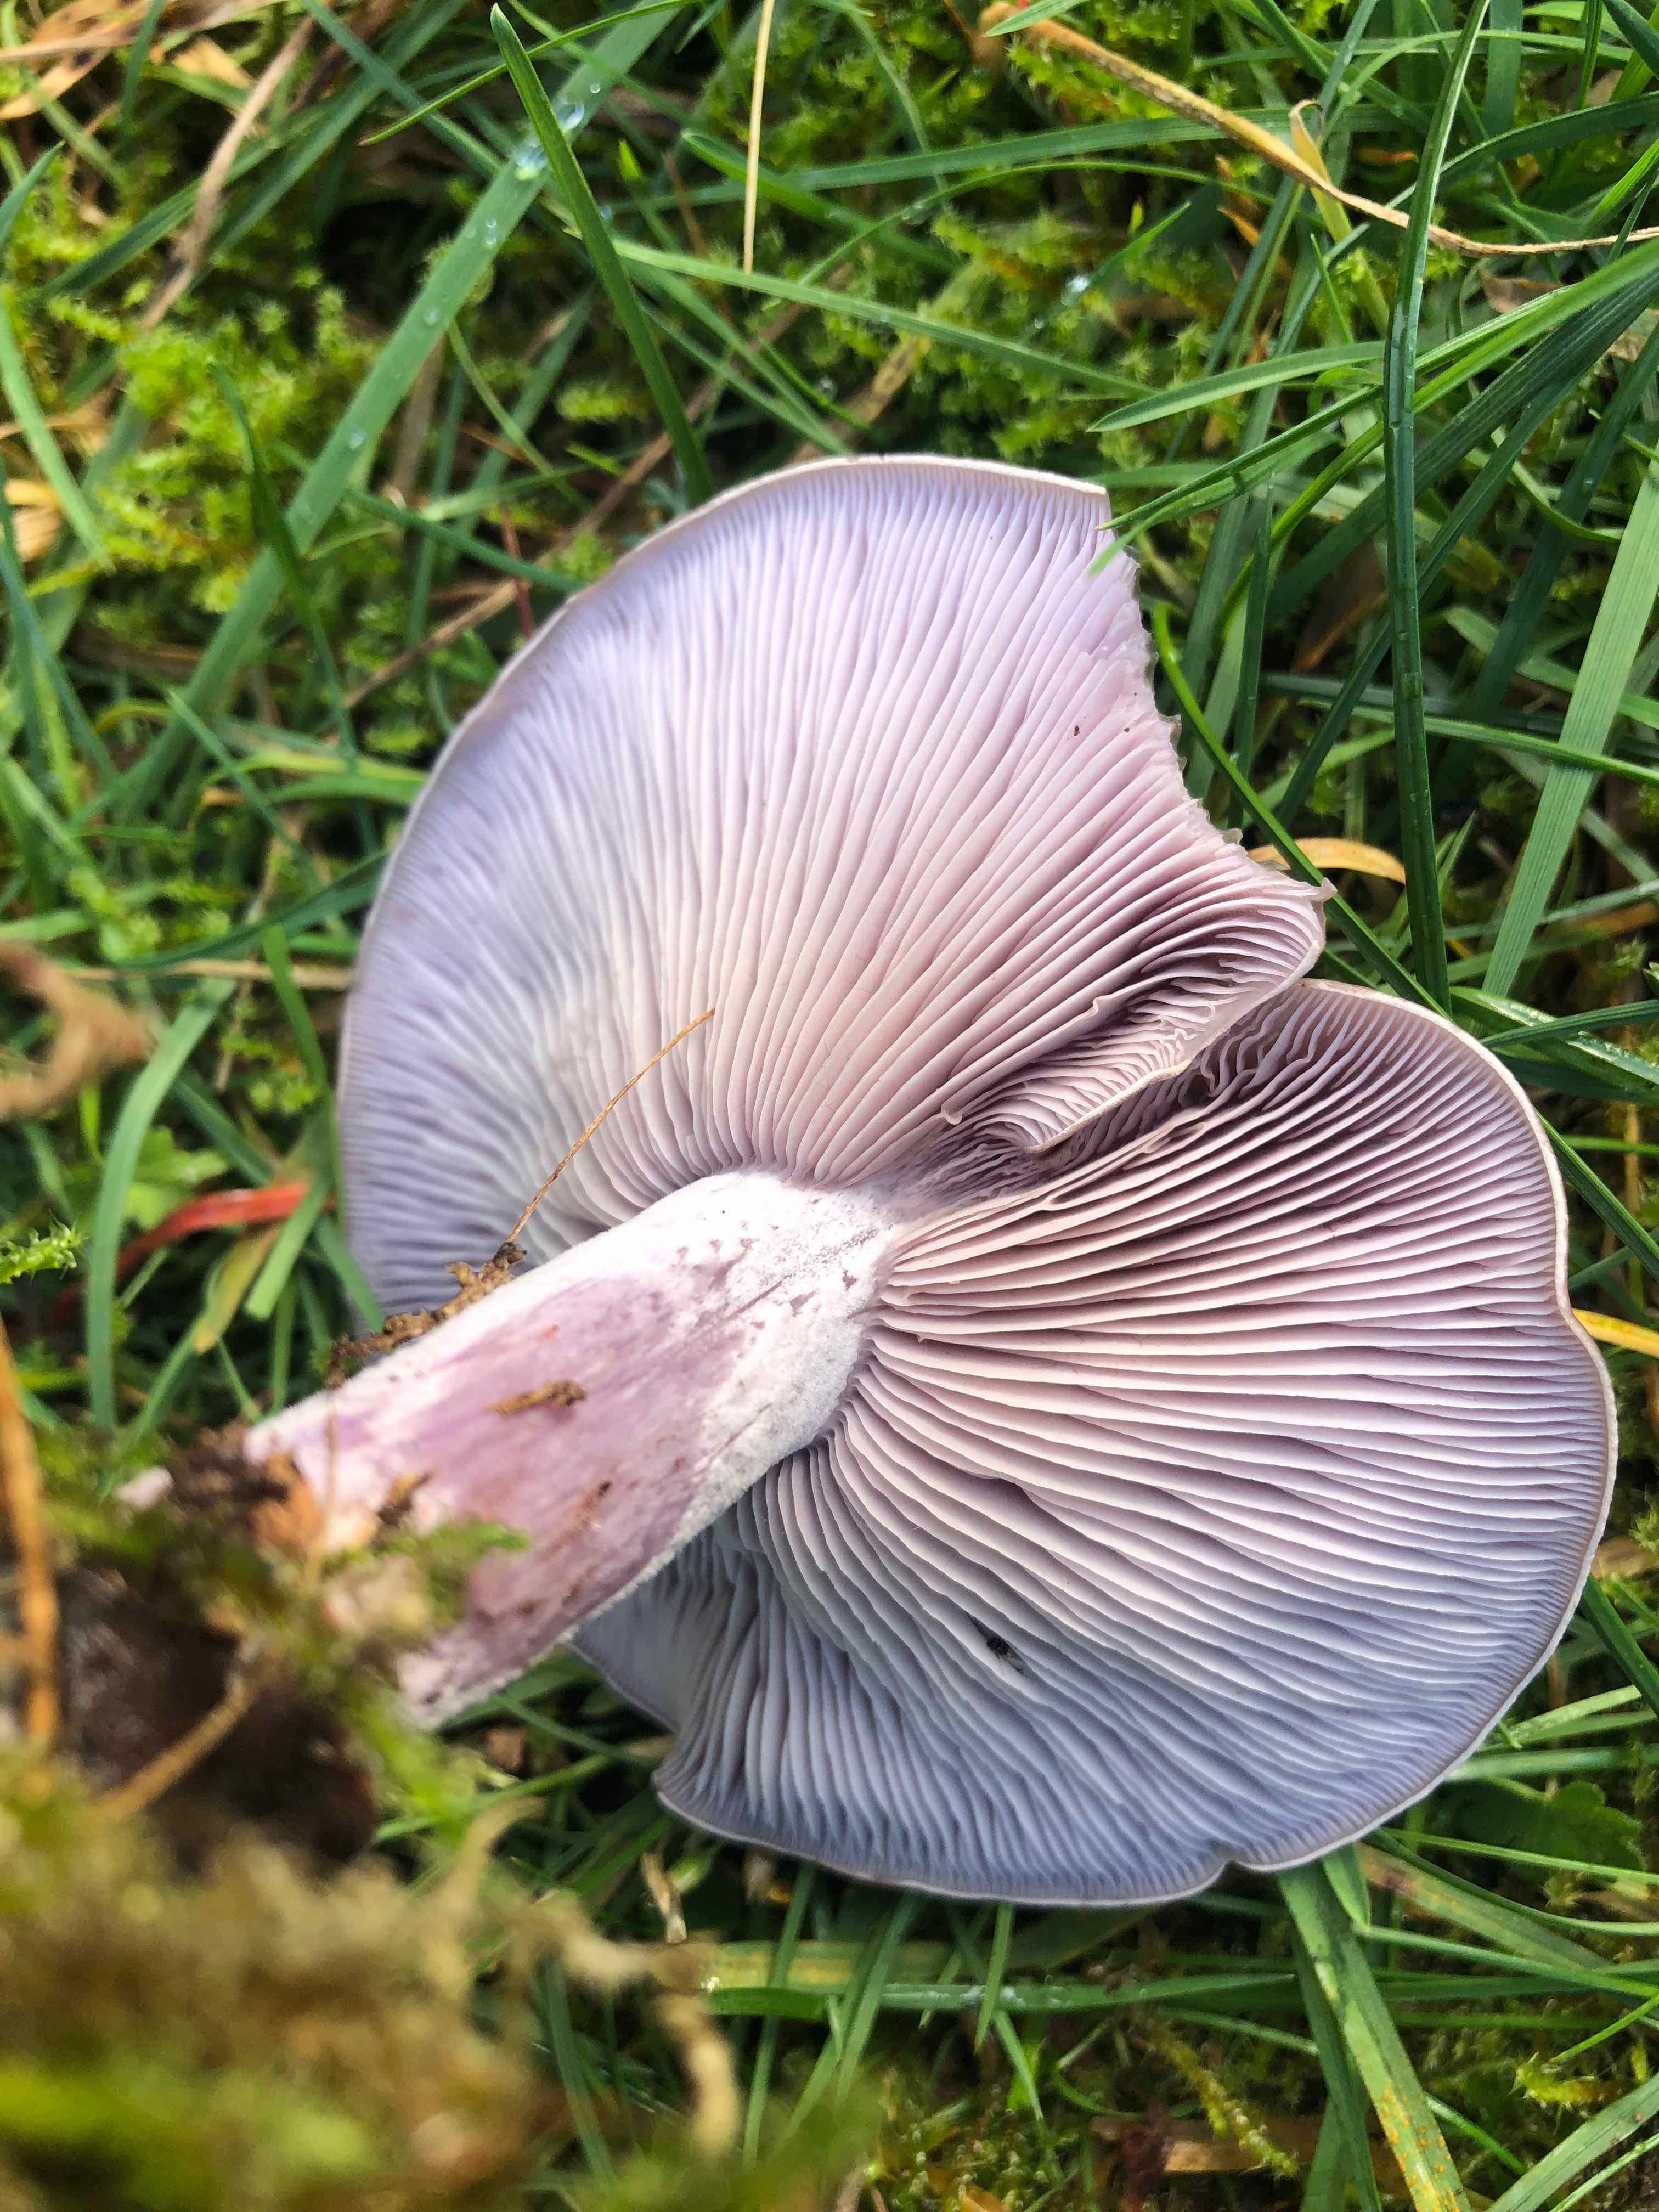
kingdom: Fungi
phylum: Basidiomycota
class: Agaricomycetes
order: Agaricales
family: Tricholomataceae
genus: Lepista
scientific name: Lepista nuda
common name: violet hekseringshat
